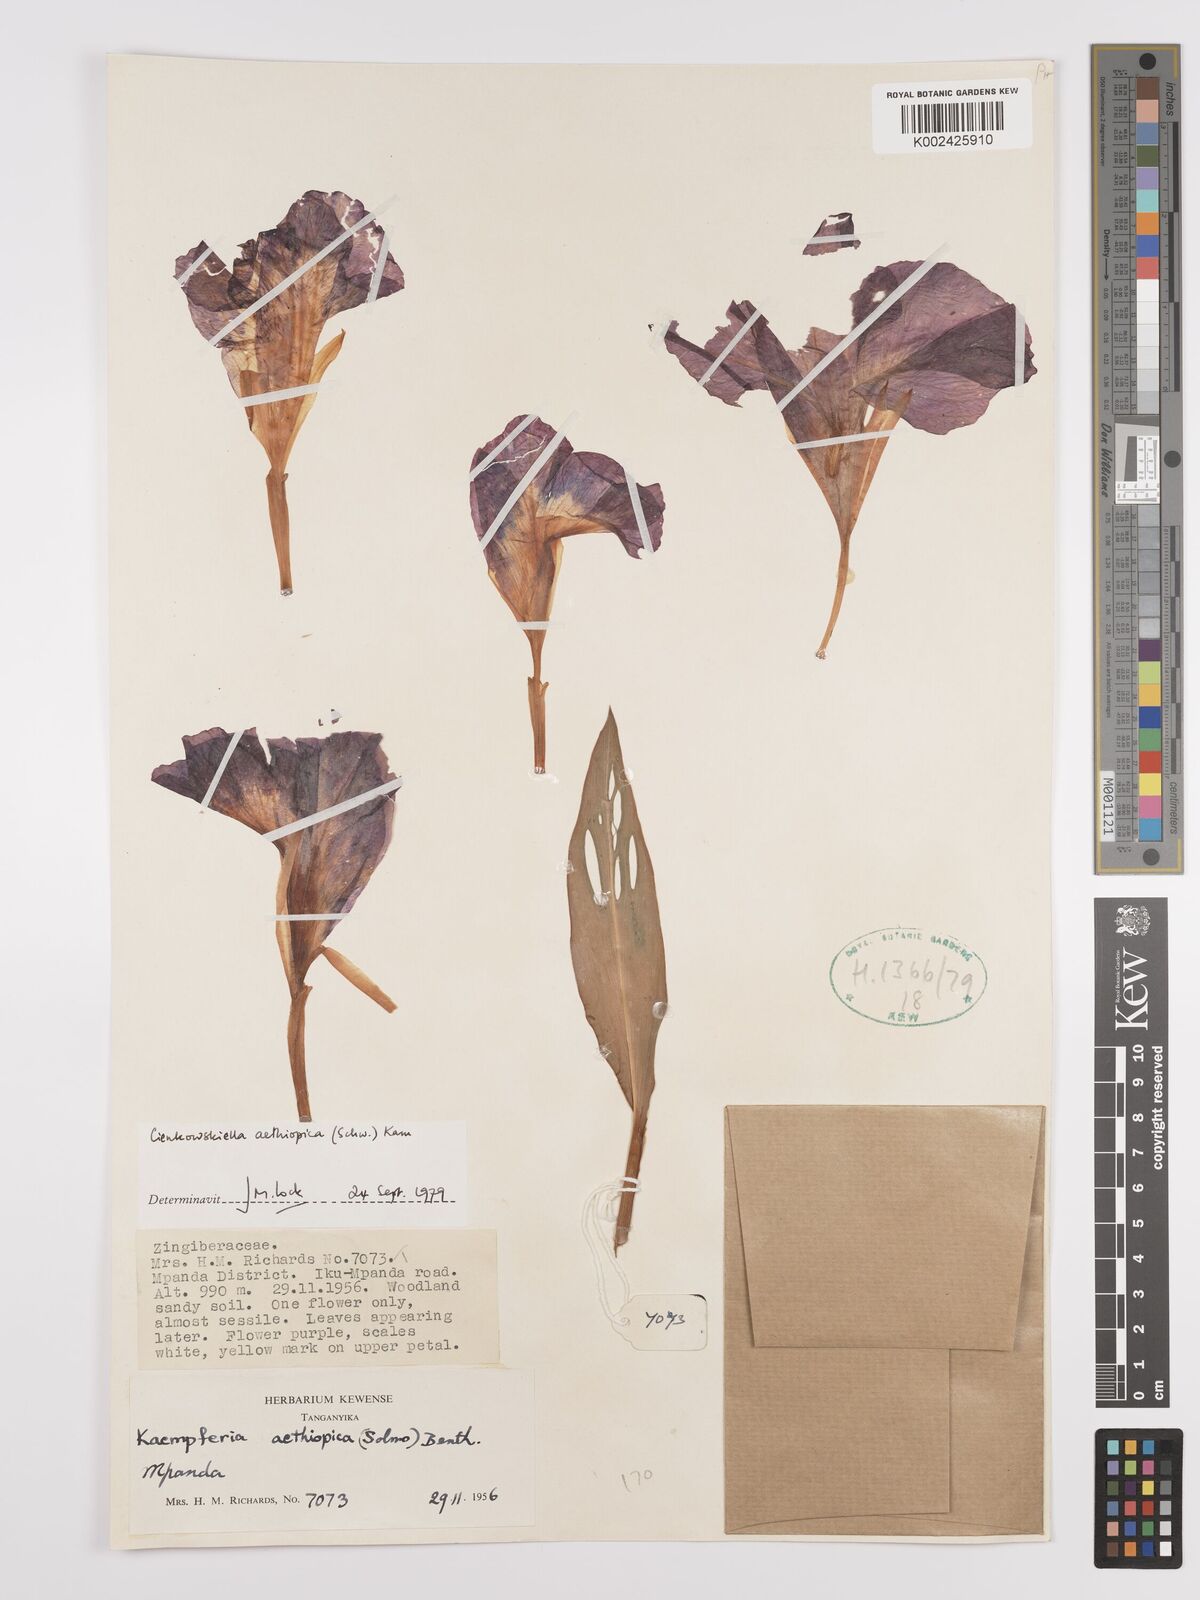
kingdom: Plantae
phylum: Tracheophyta
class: Liliopsida
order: Zingiberales
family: Zingiberaceae
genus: Siphonochilus
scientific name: Siphonochilus aethiopicus
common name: African-ginger
